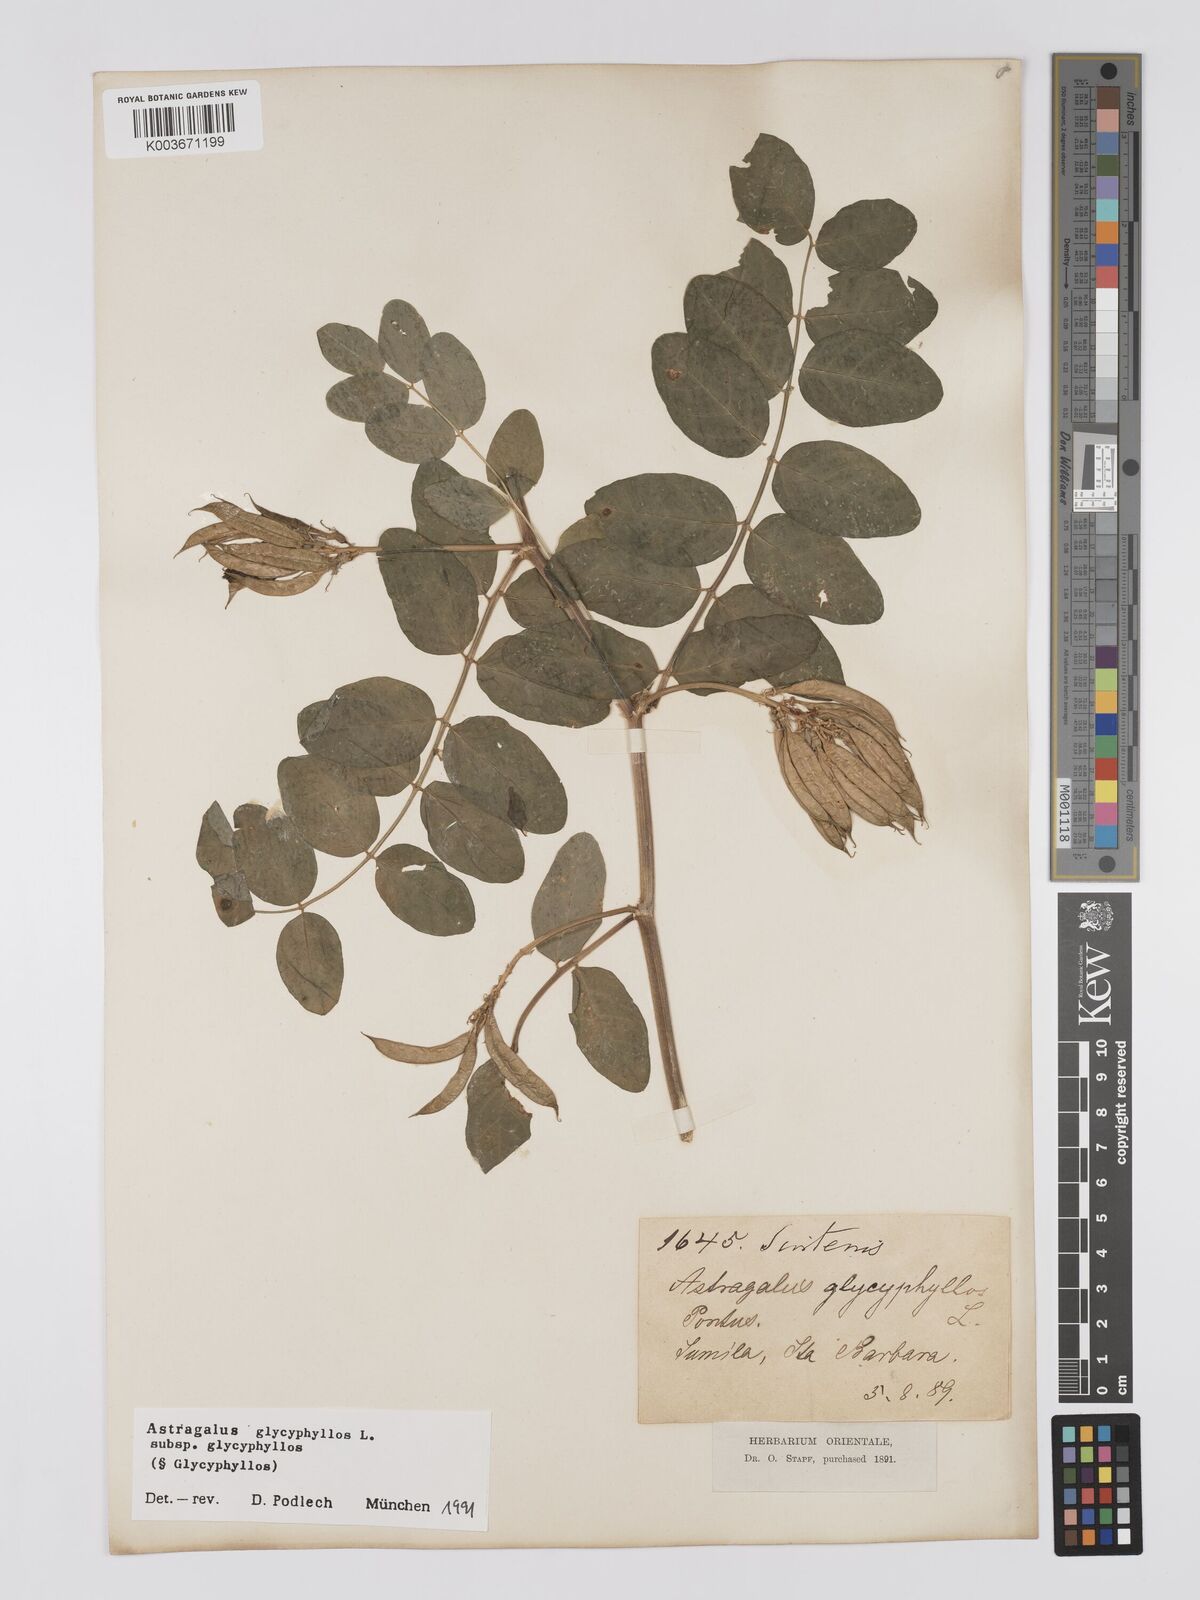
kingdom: Plantae
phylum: Tracheophyta
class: Magnoliopsida
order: Fabales
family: Fabaceae
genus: Astragalus
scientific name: Astragalus glycyphyllos
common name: Wild liquorice
